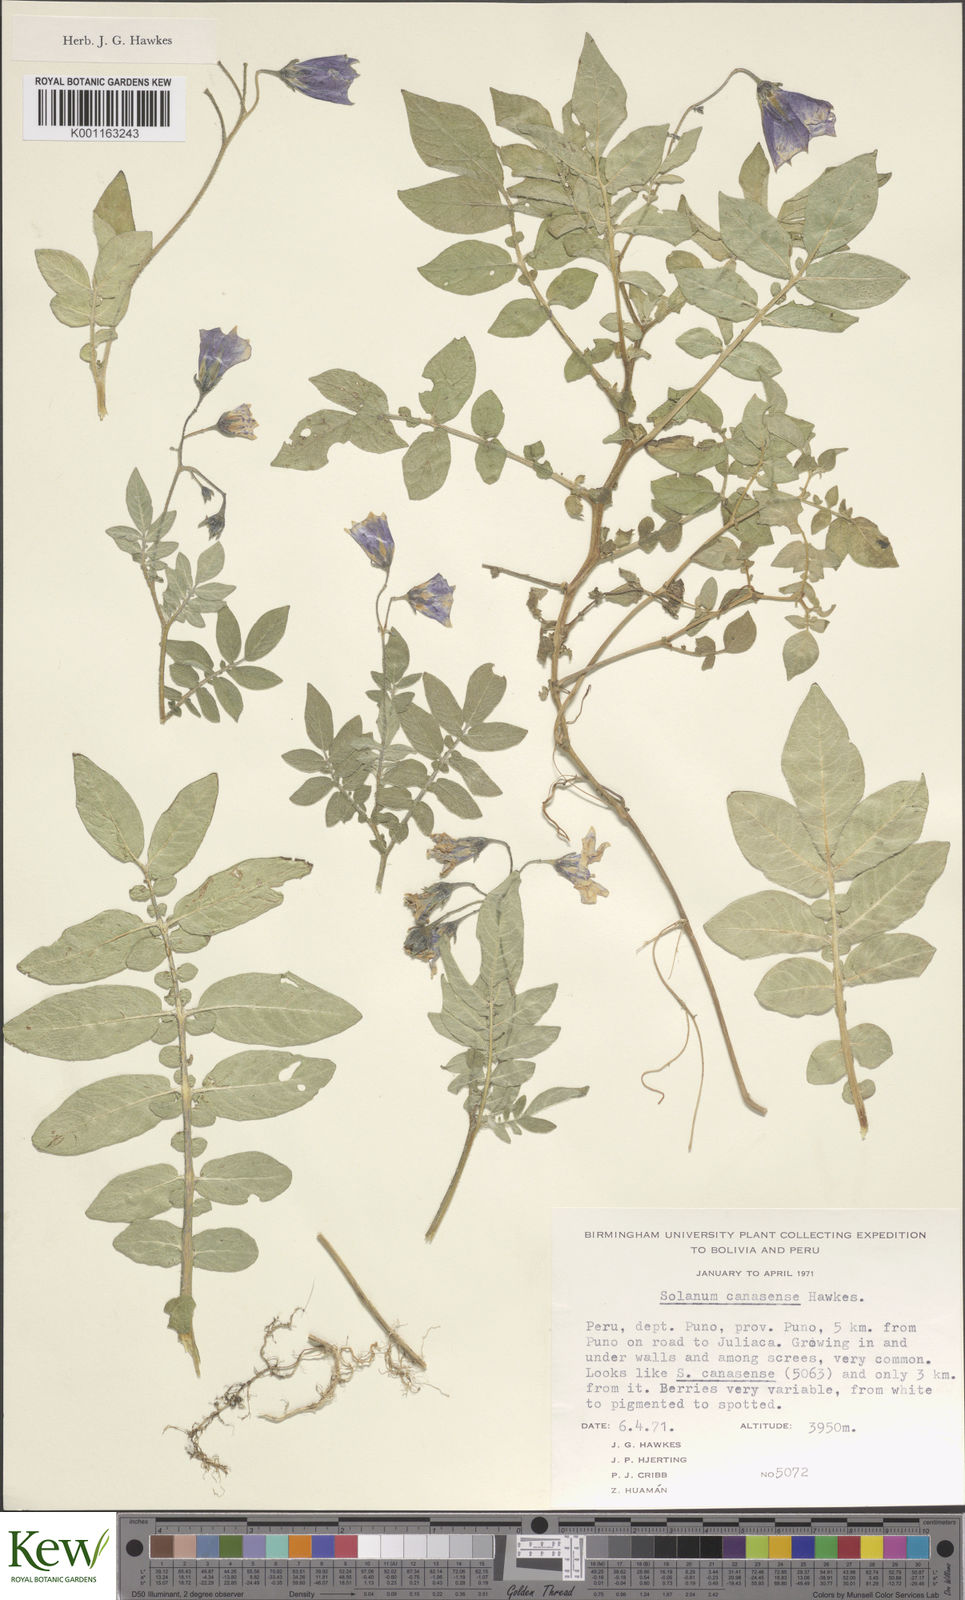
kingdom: Plantae
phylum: Tracheophyta
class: Magnoliopsida
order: Solanales
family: Solanaceae
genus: Solanum
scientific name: Solanum candolleanum
